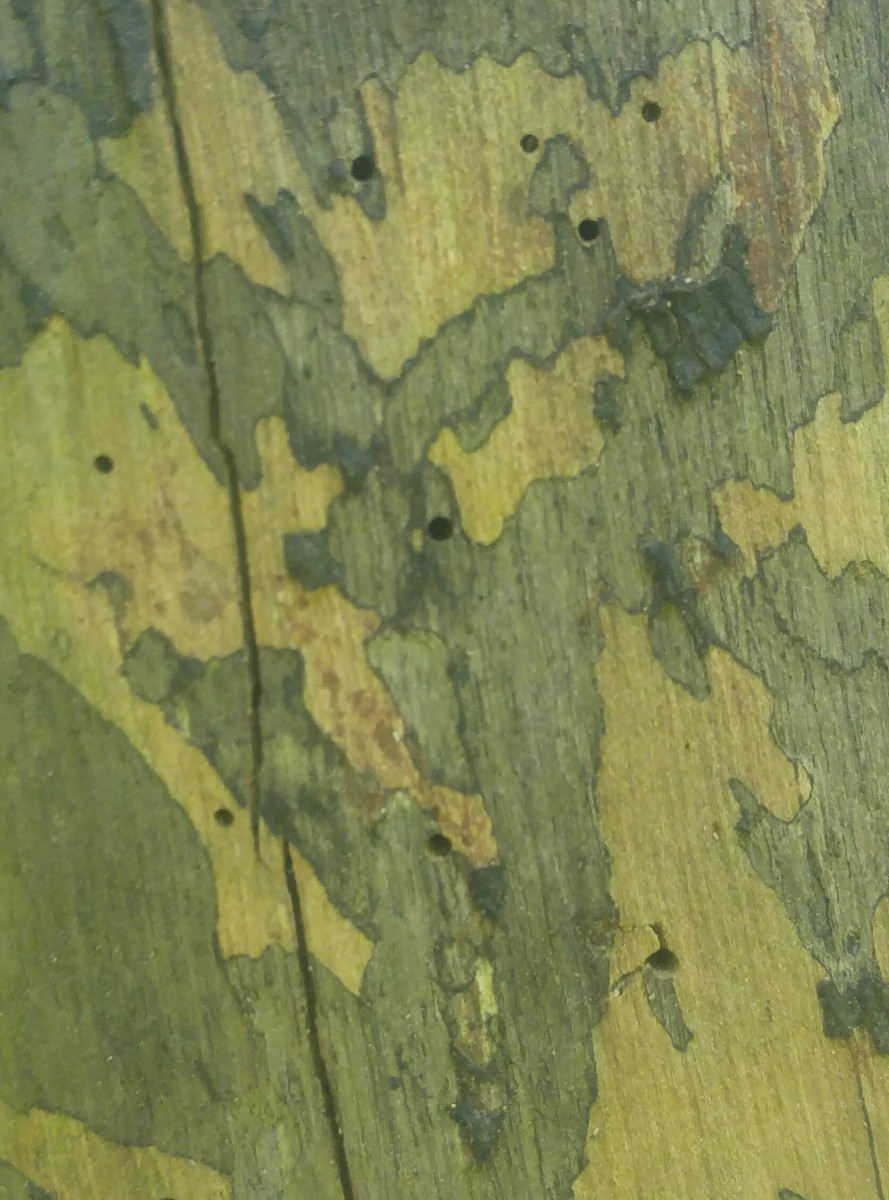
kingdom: Fungi
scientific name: Fungi
